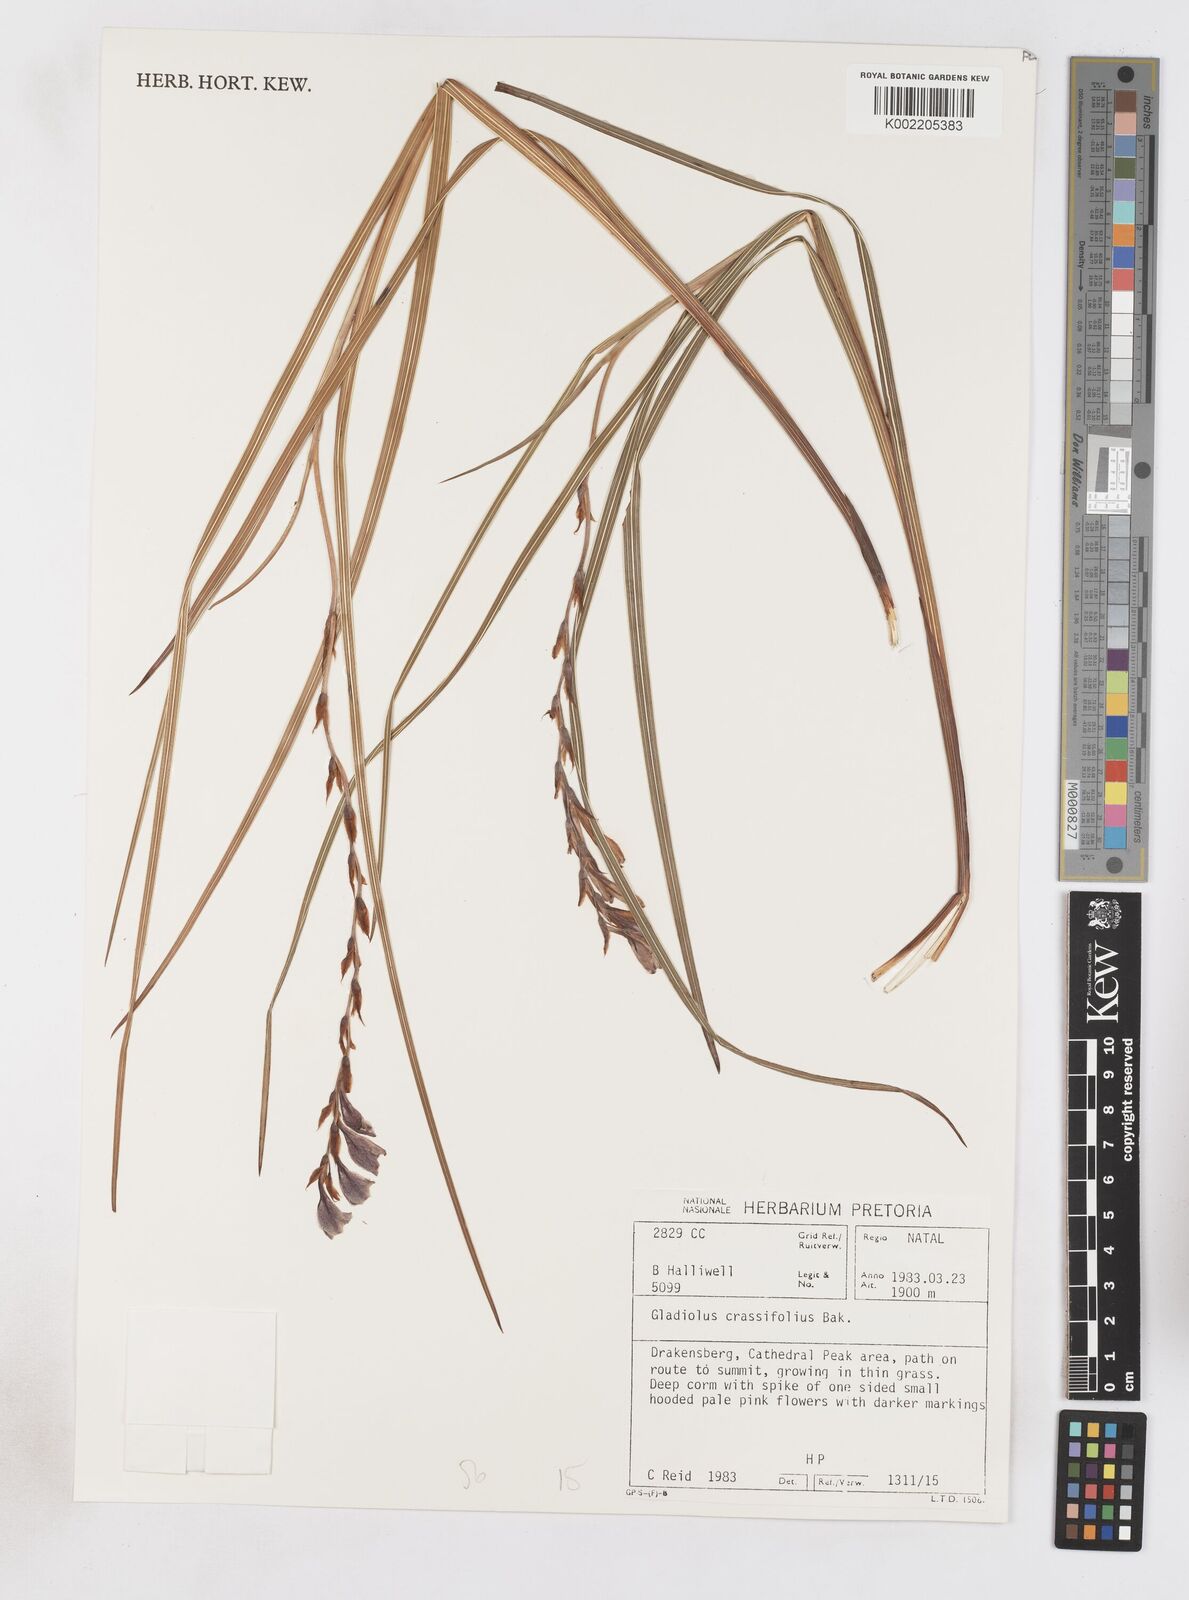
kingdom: Plantae
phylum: Tracheophyta
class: Liliopsida
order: Asparagales
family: Iridaceae
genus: Gladiolus
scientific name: Gladiolus crassifolius
